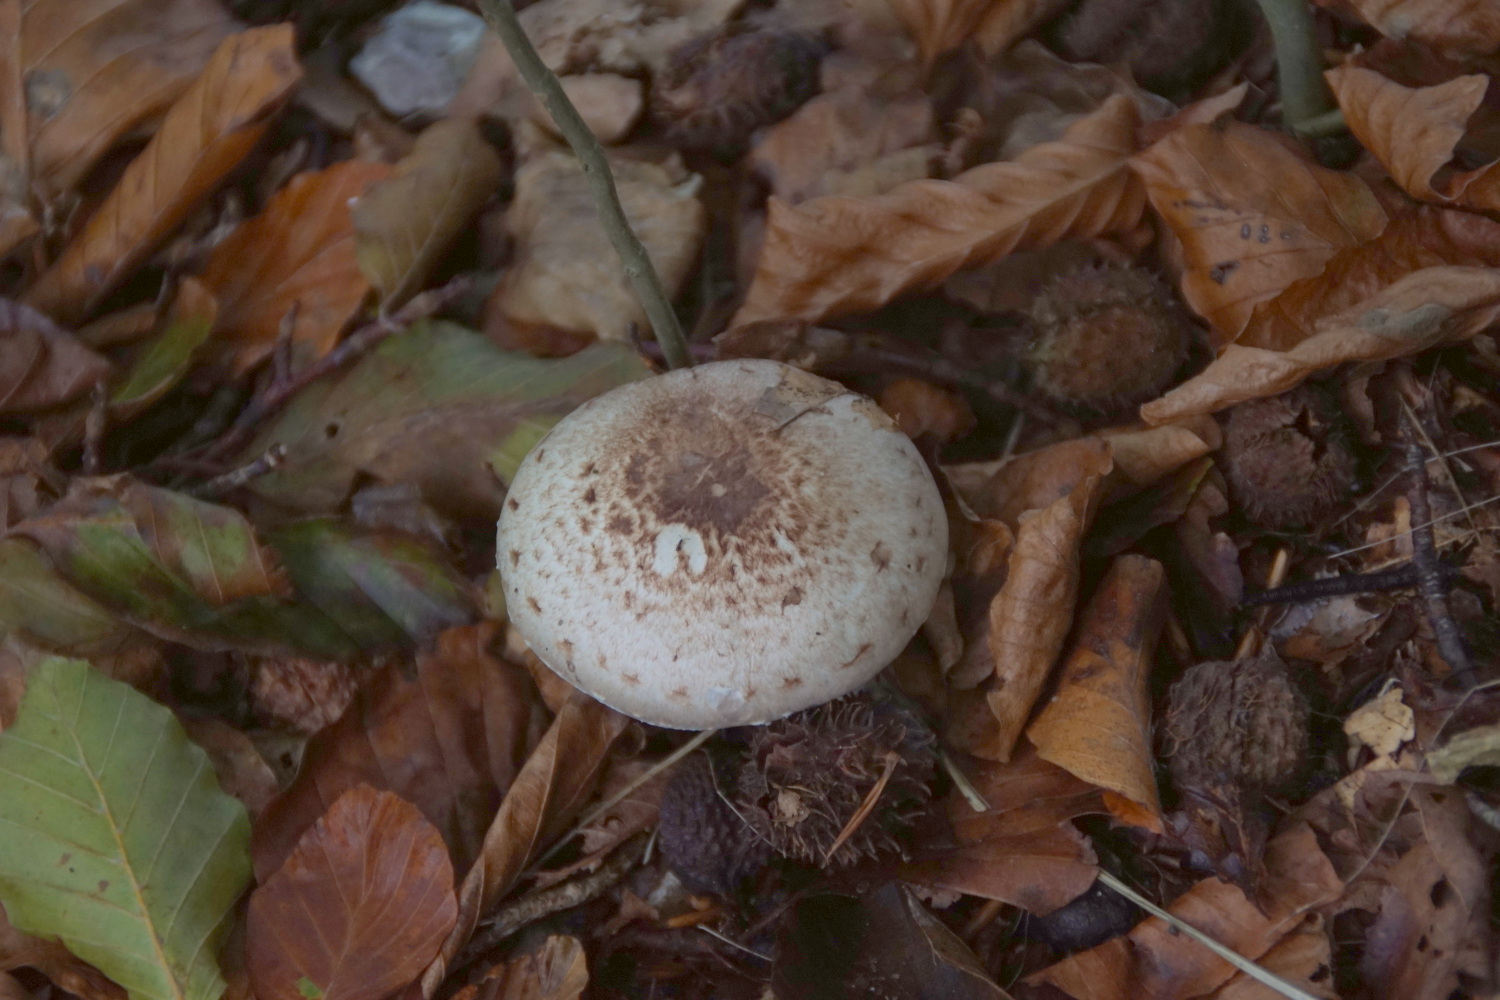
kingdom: Fungi
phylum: Basidiomycota
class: Agaricomycetes
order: Agaricales
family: Agaricaceae
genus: Agaricus
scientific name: Agaricus impudicus
